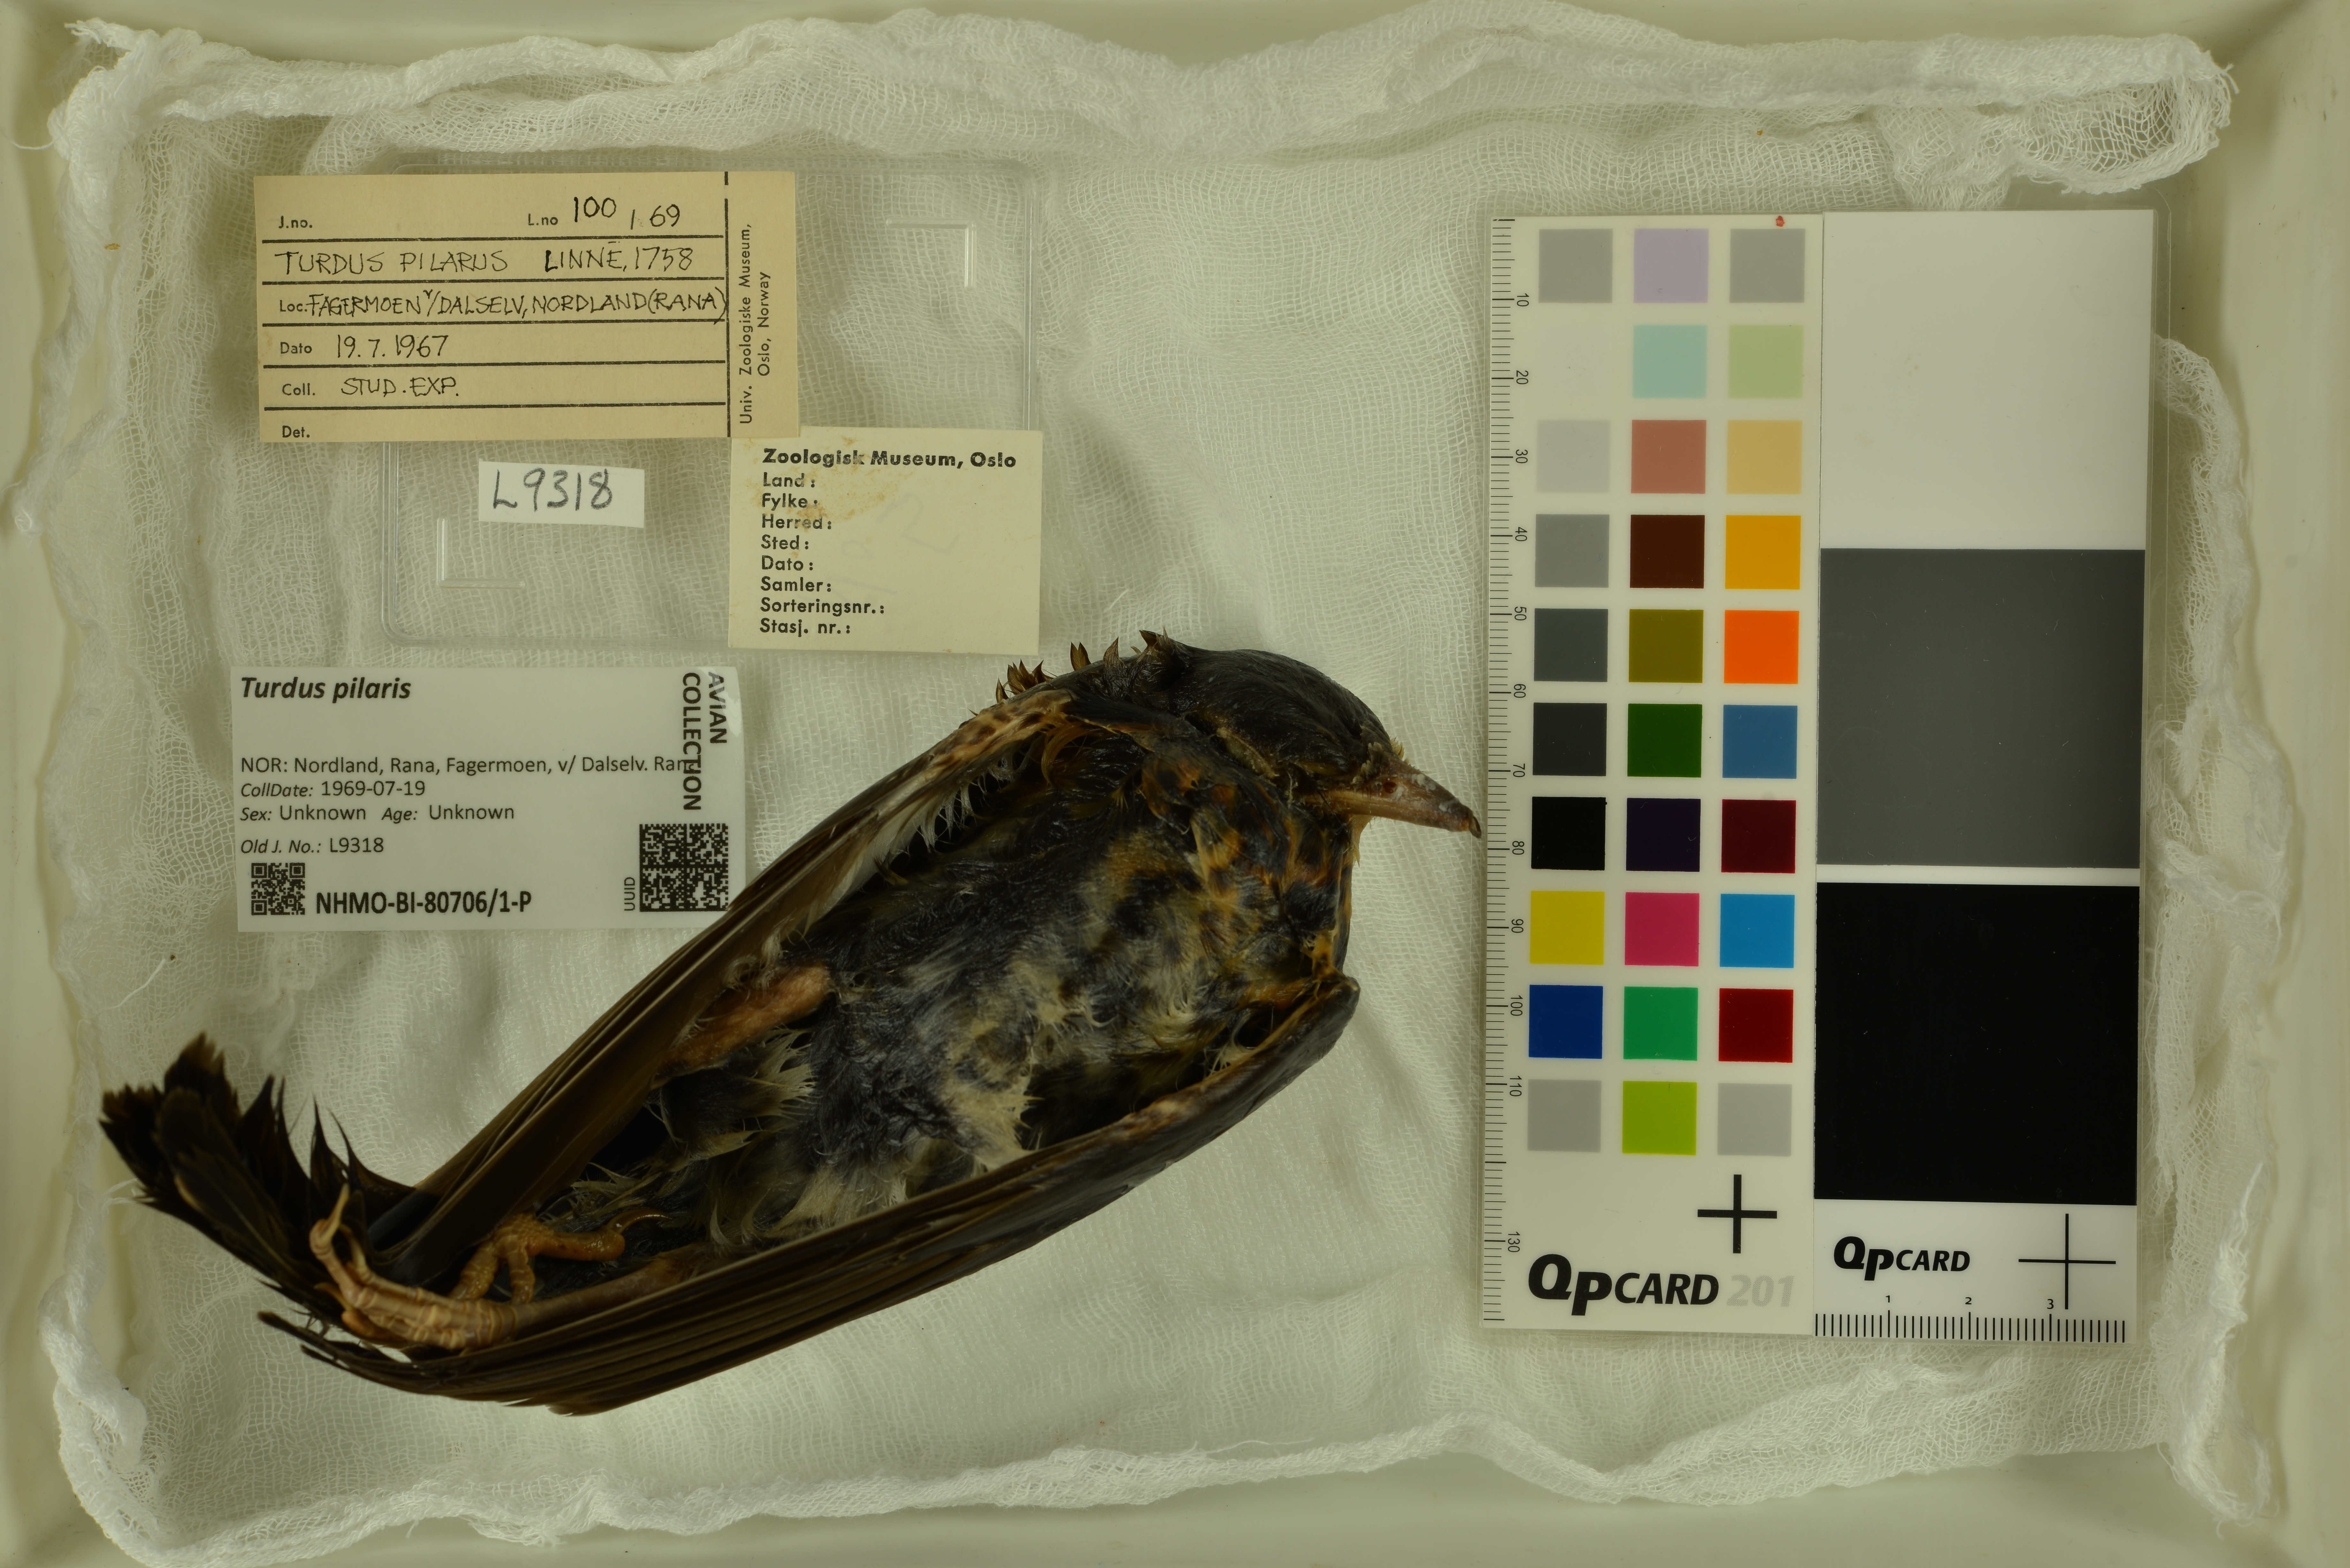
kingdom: Animalia
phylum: Chordata
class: Aves
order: Passeriformes
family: Turdidae
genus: Turdus
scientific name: Turdus pilaris
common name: Fieldfare
